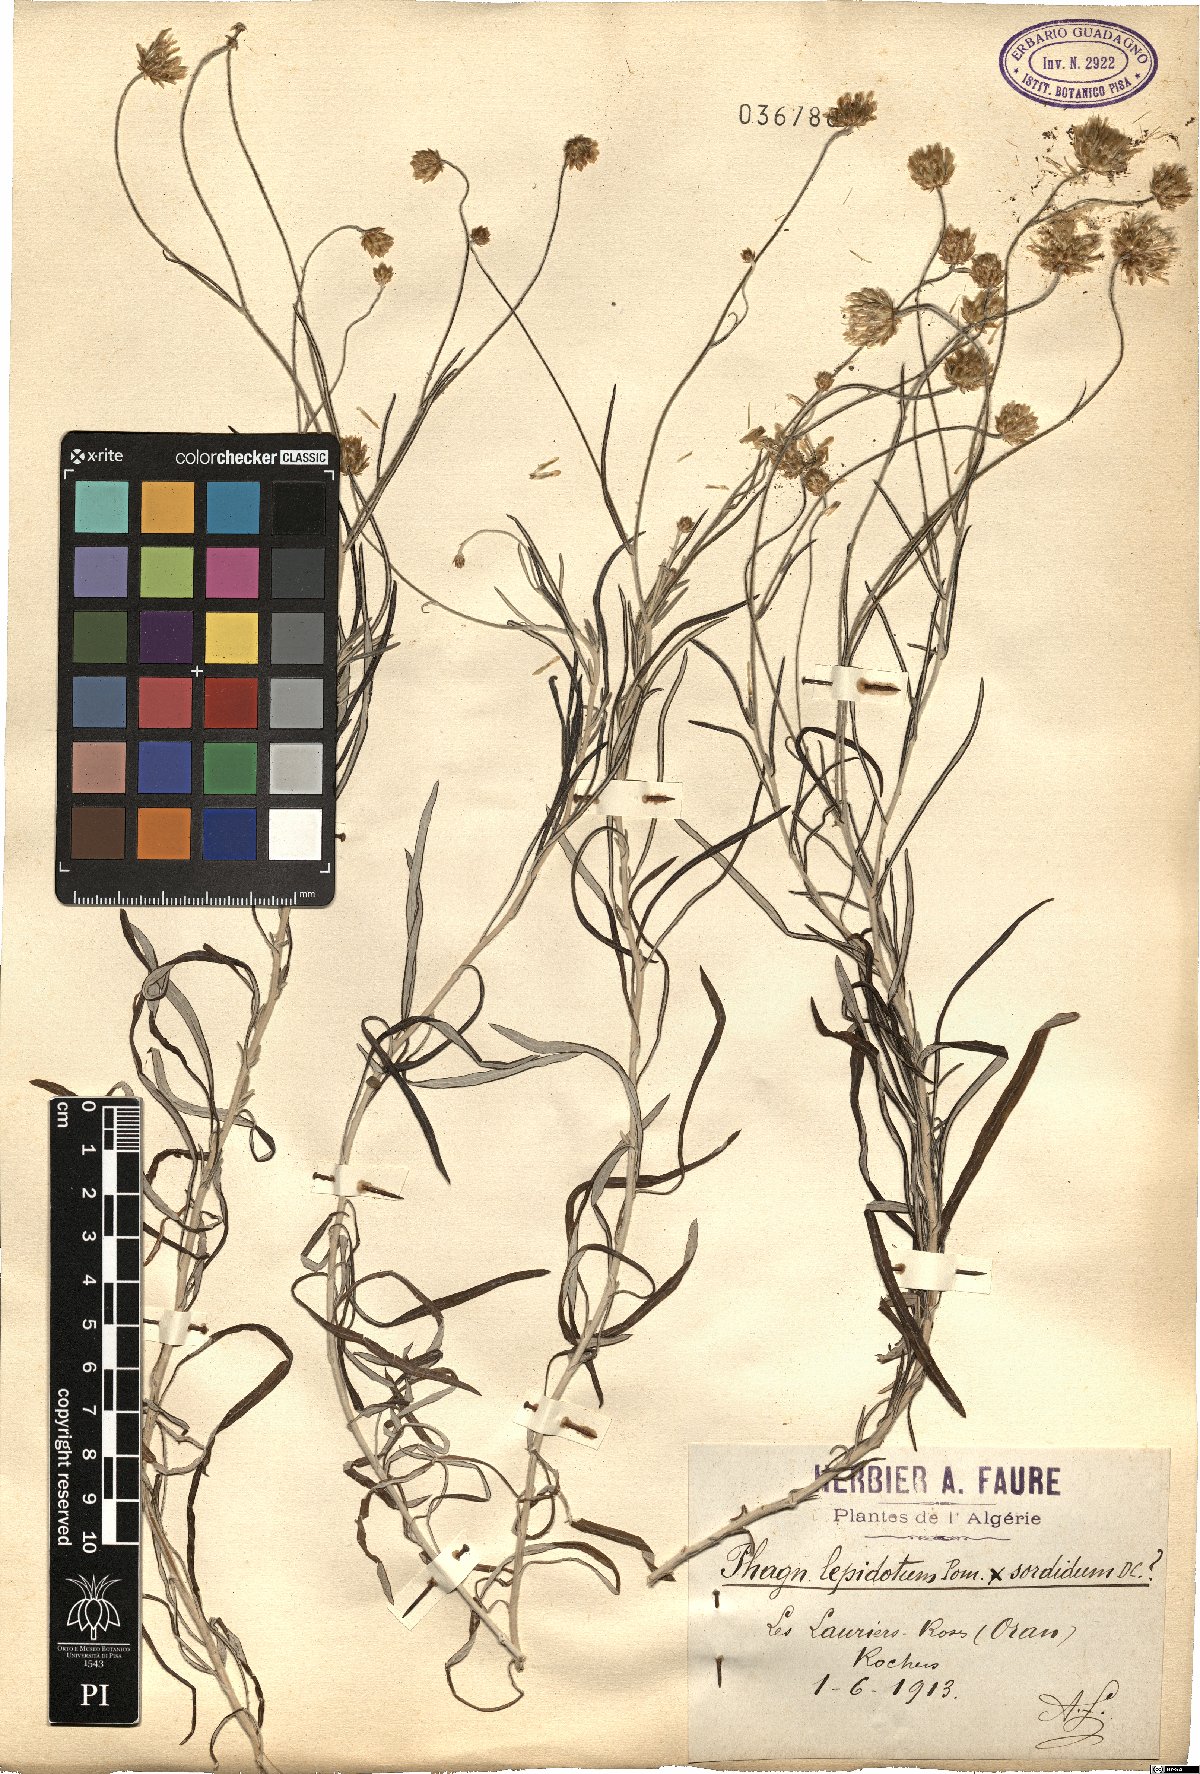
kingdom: Plantae
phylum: Tracheophyta
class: Magnoliopsida
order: Asterales
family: Asteraceae
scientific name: Asteraceae
